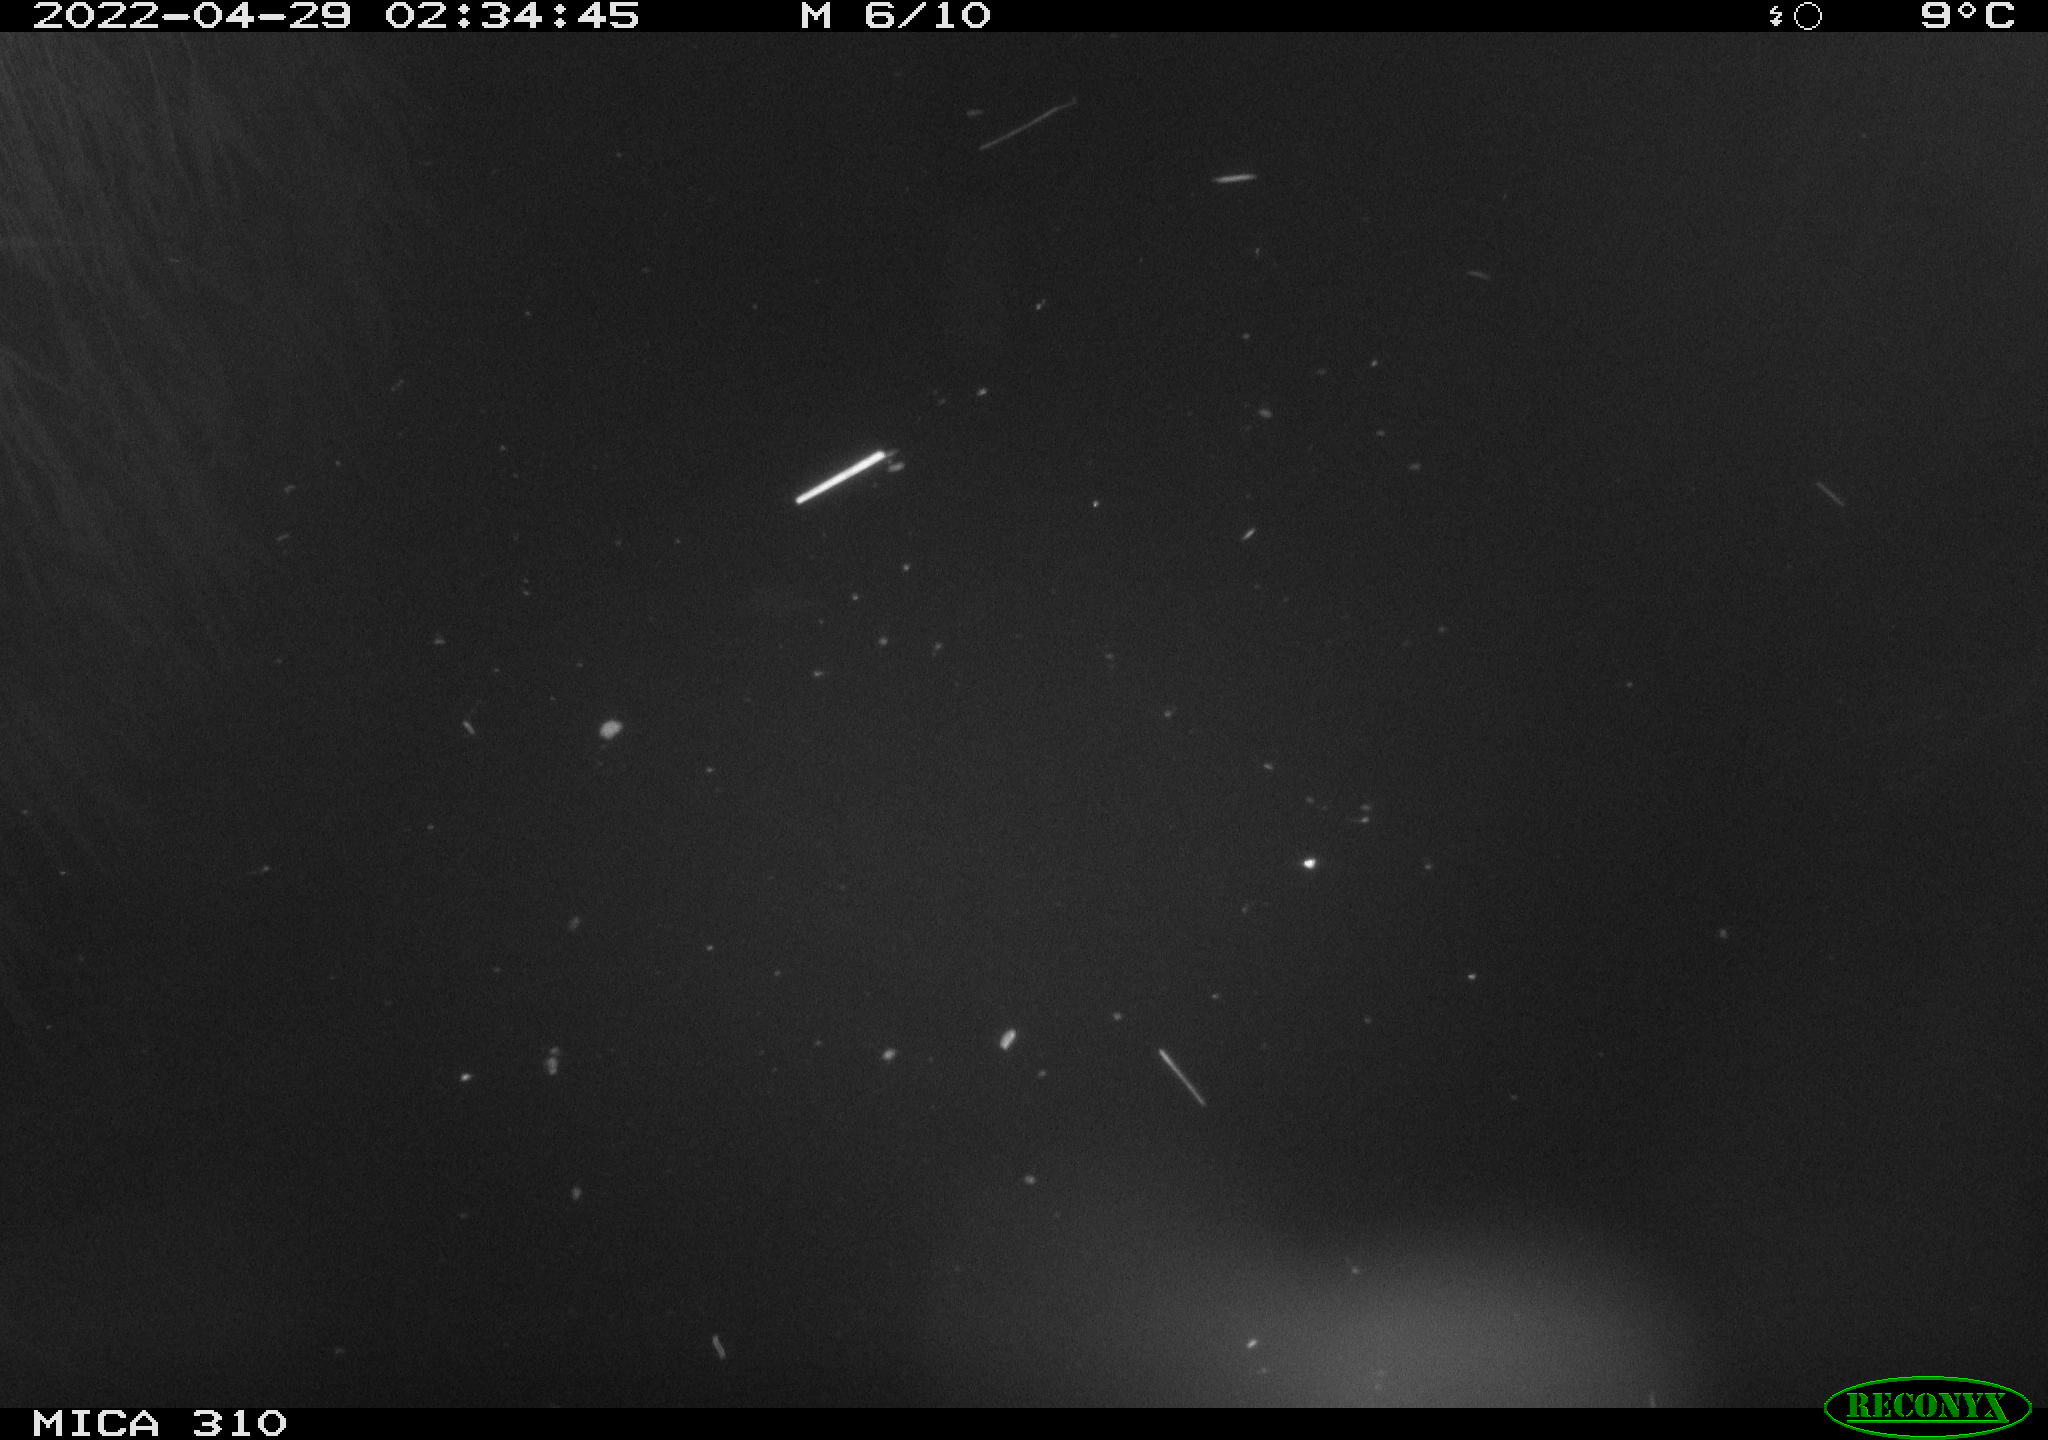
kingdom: Animalia
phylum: Chordata
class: Aves
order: Anseriformes
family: Anatidae
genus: Anas
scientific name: Anas platyrhynchos
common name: Mallard
